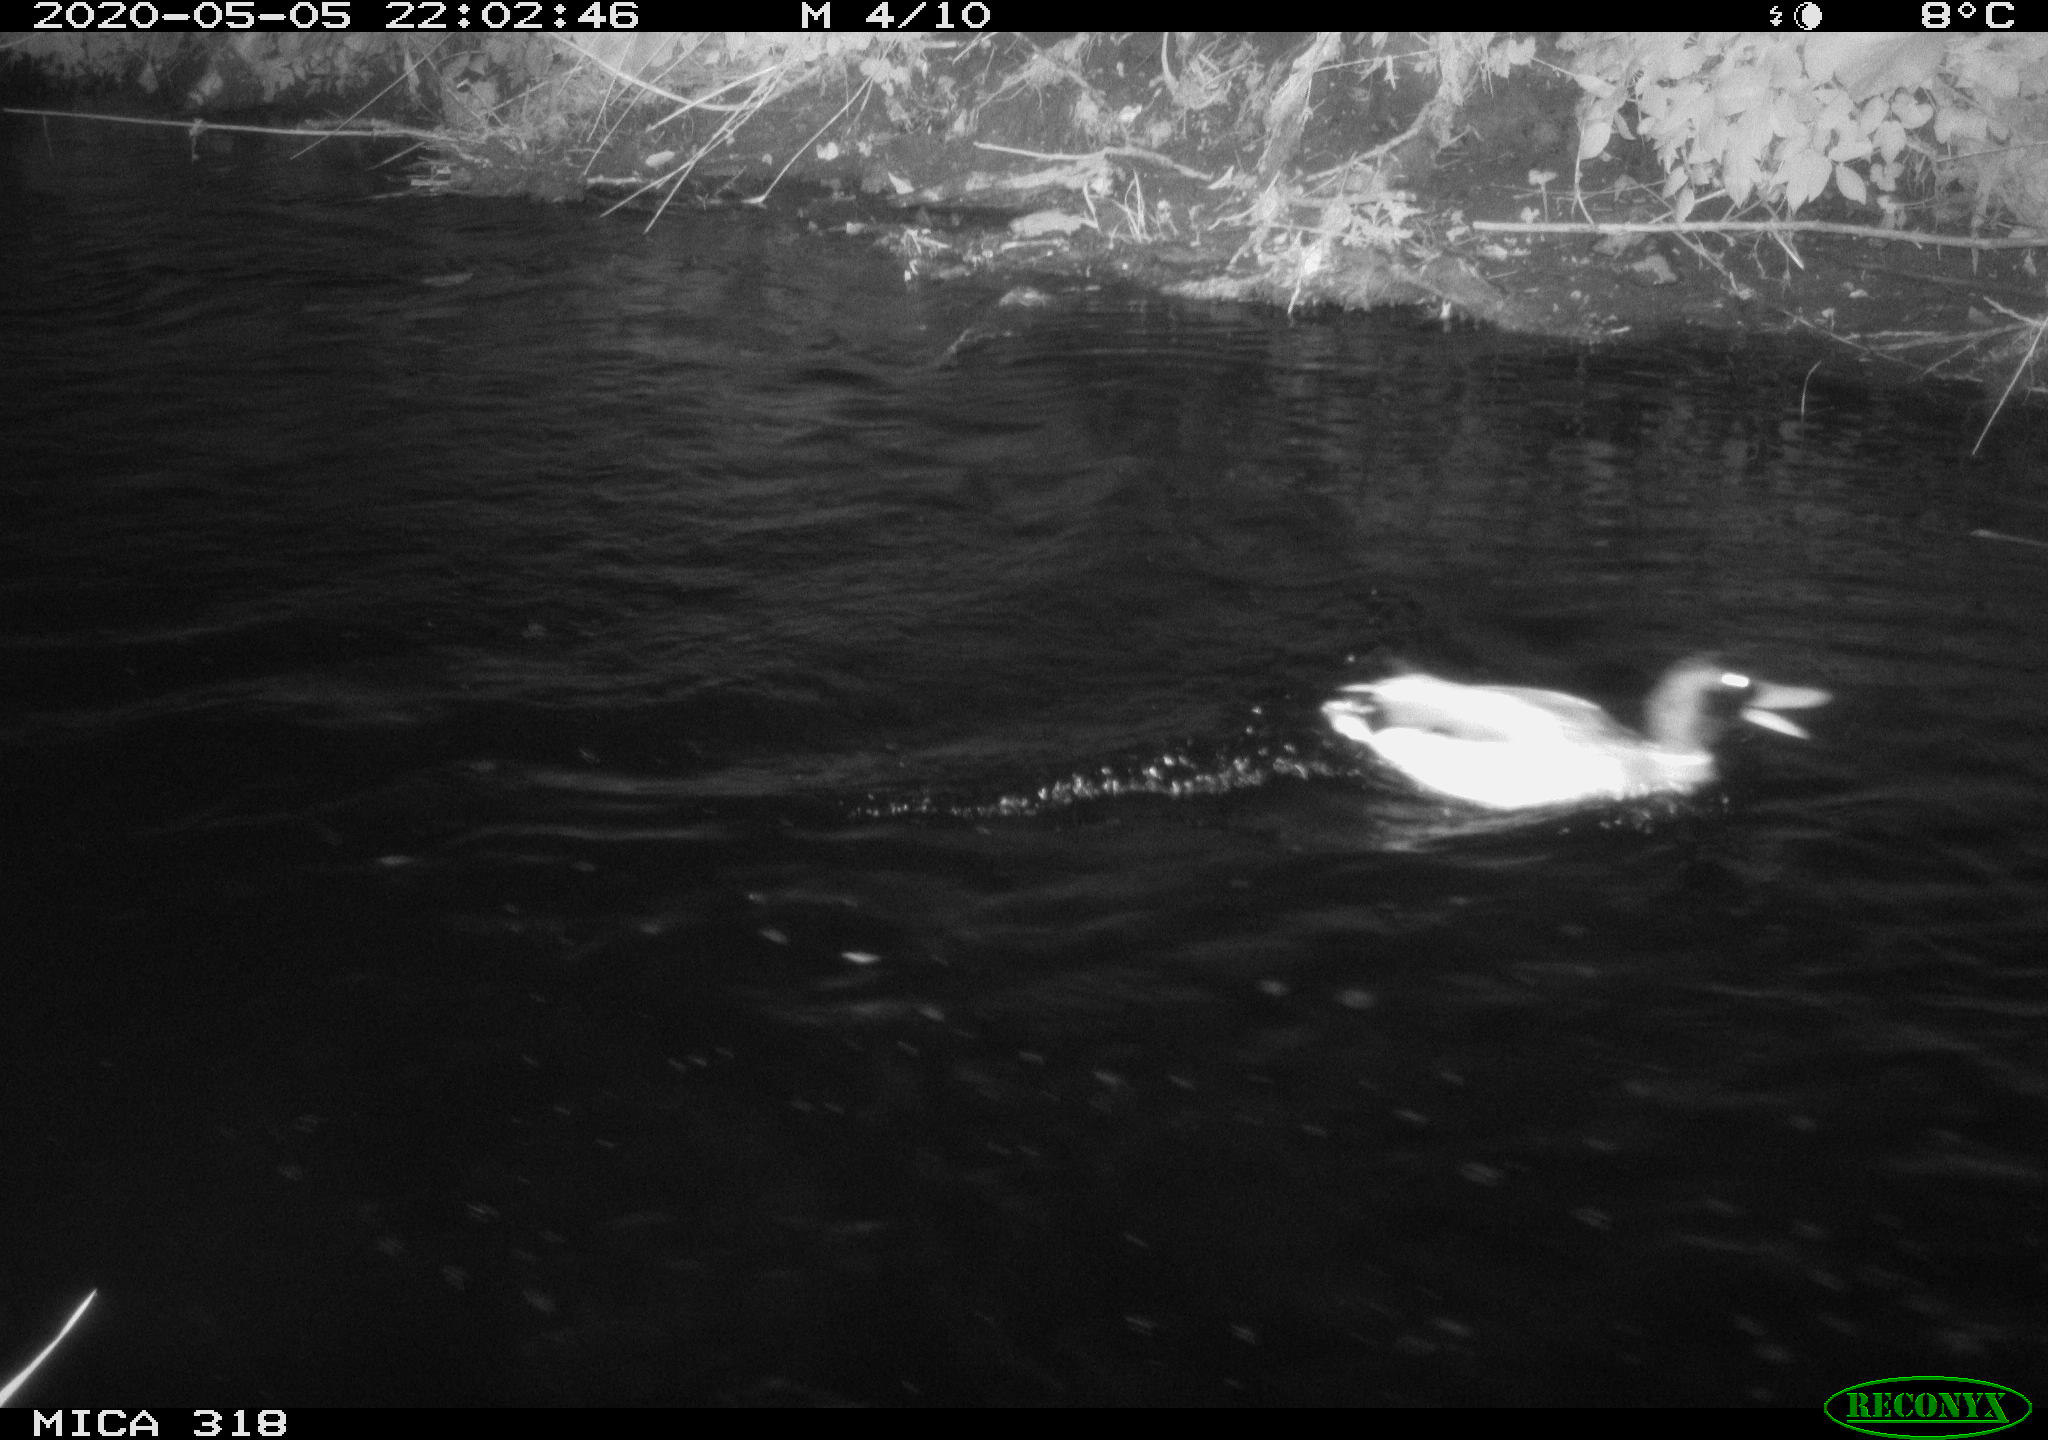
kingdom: Animalia
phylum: Chordata
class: Aves
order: Anseriformes
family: Anatidae
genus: Anas
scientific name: Anas platyrhynchos
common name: Mallard
